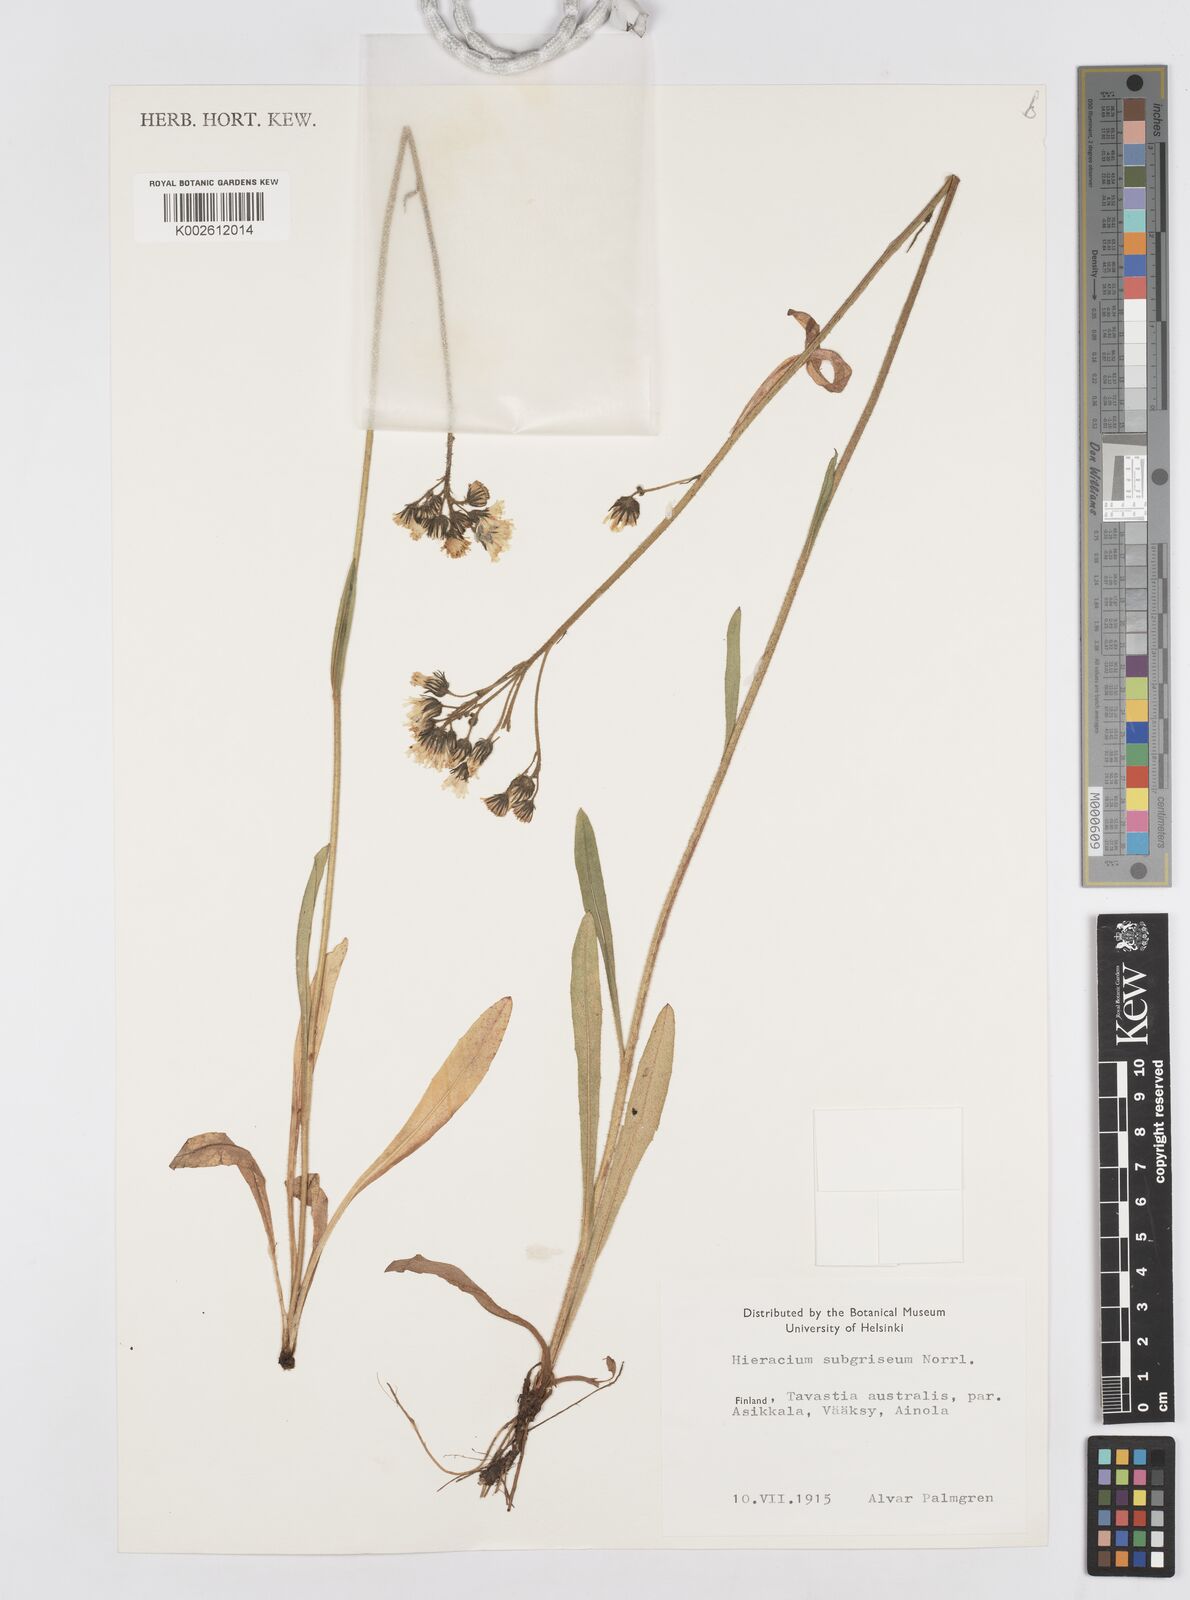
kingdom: Plantae
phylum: Tracheophyta
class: Magnoliopsida
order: Asterales
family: Asteraceae
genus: Hieracium
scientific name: Hieracium
